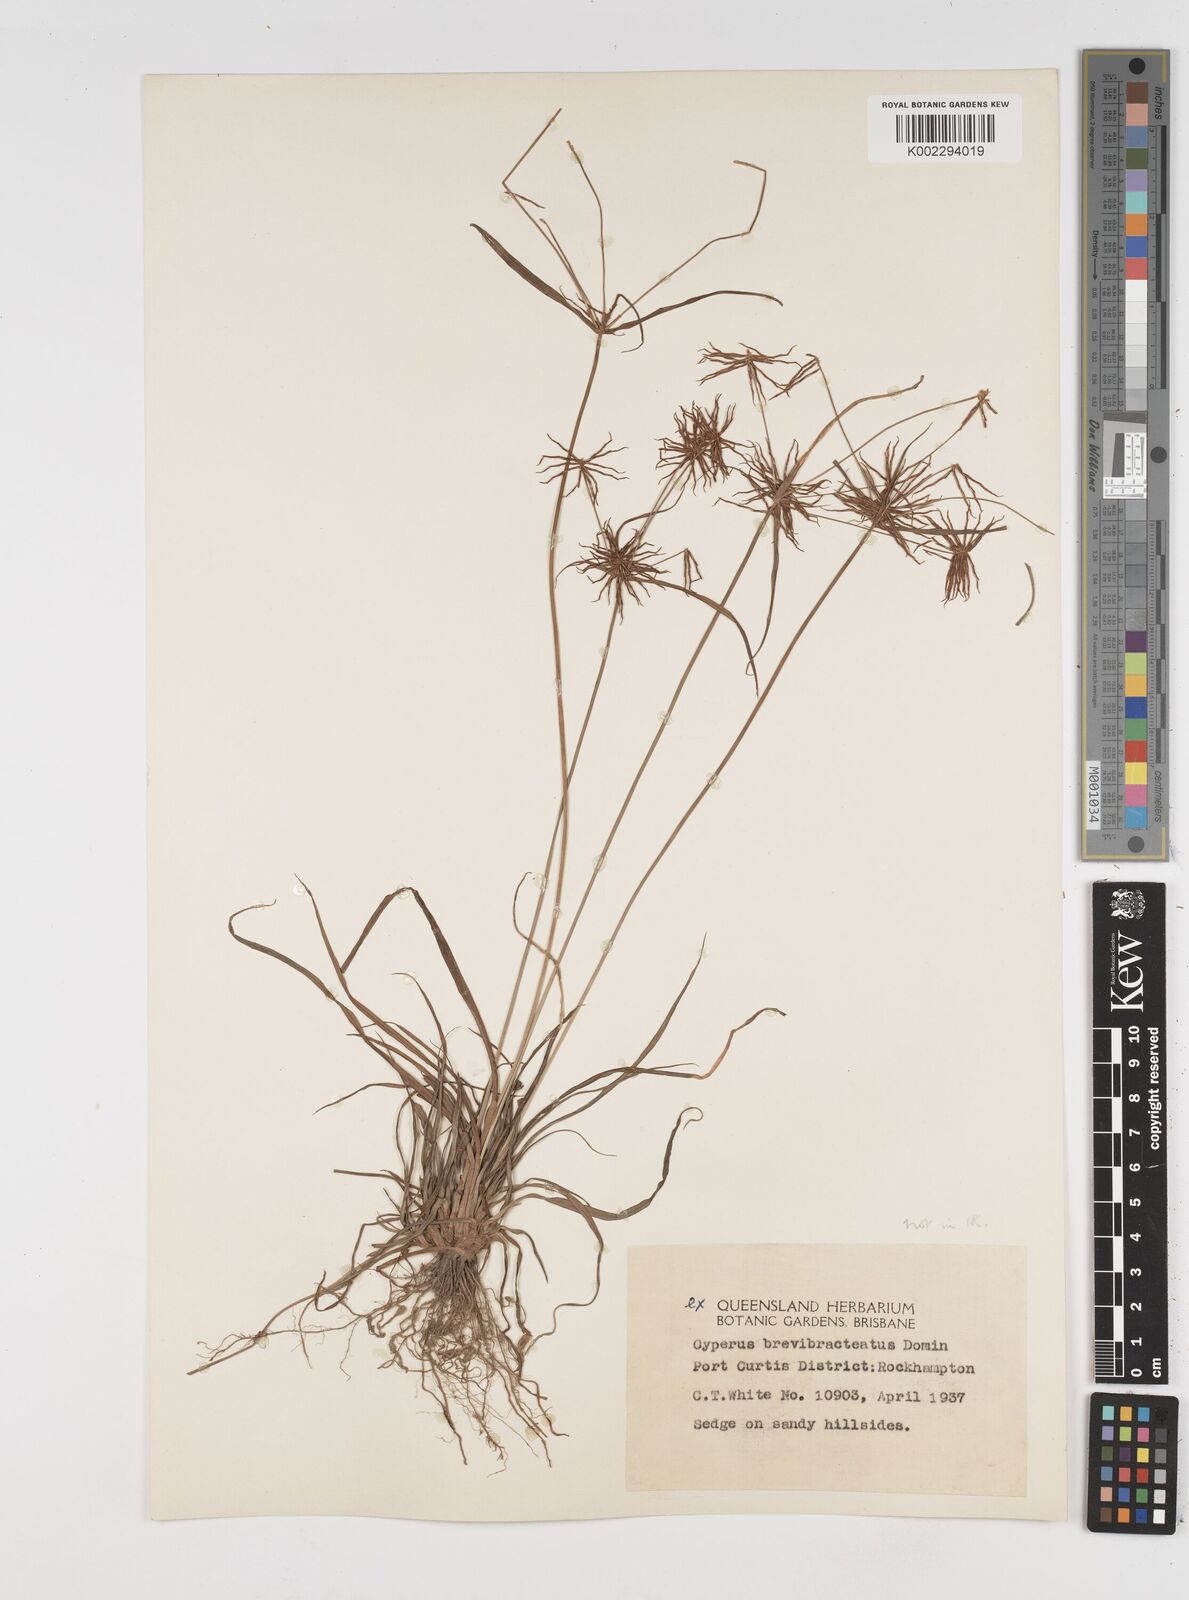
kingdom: Plantae
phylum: Tracheophyta
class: Liliopsida
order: Poales
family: Cyperaceae
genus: Cyperus
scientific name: Cyperus dietrichiae
